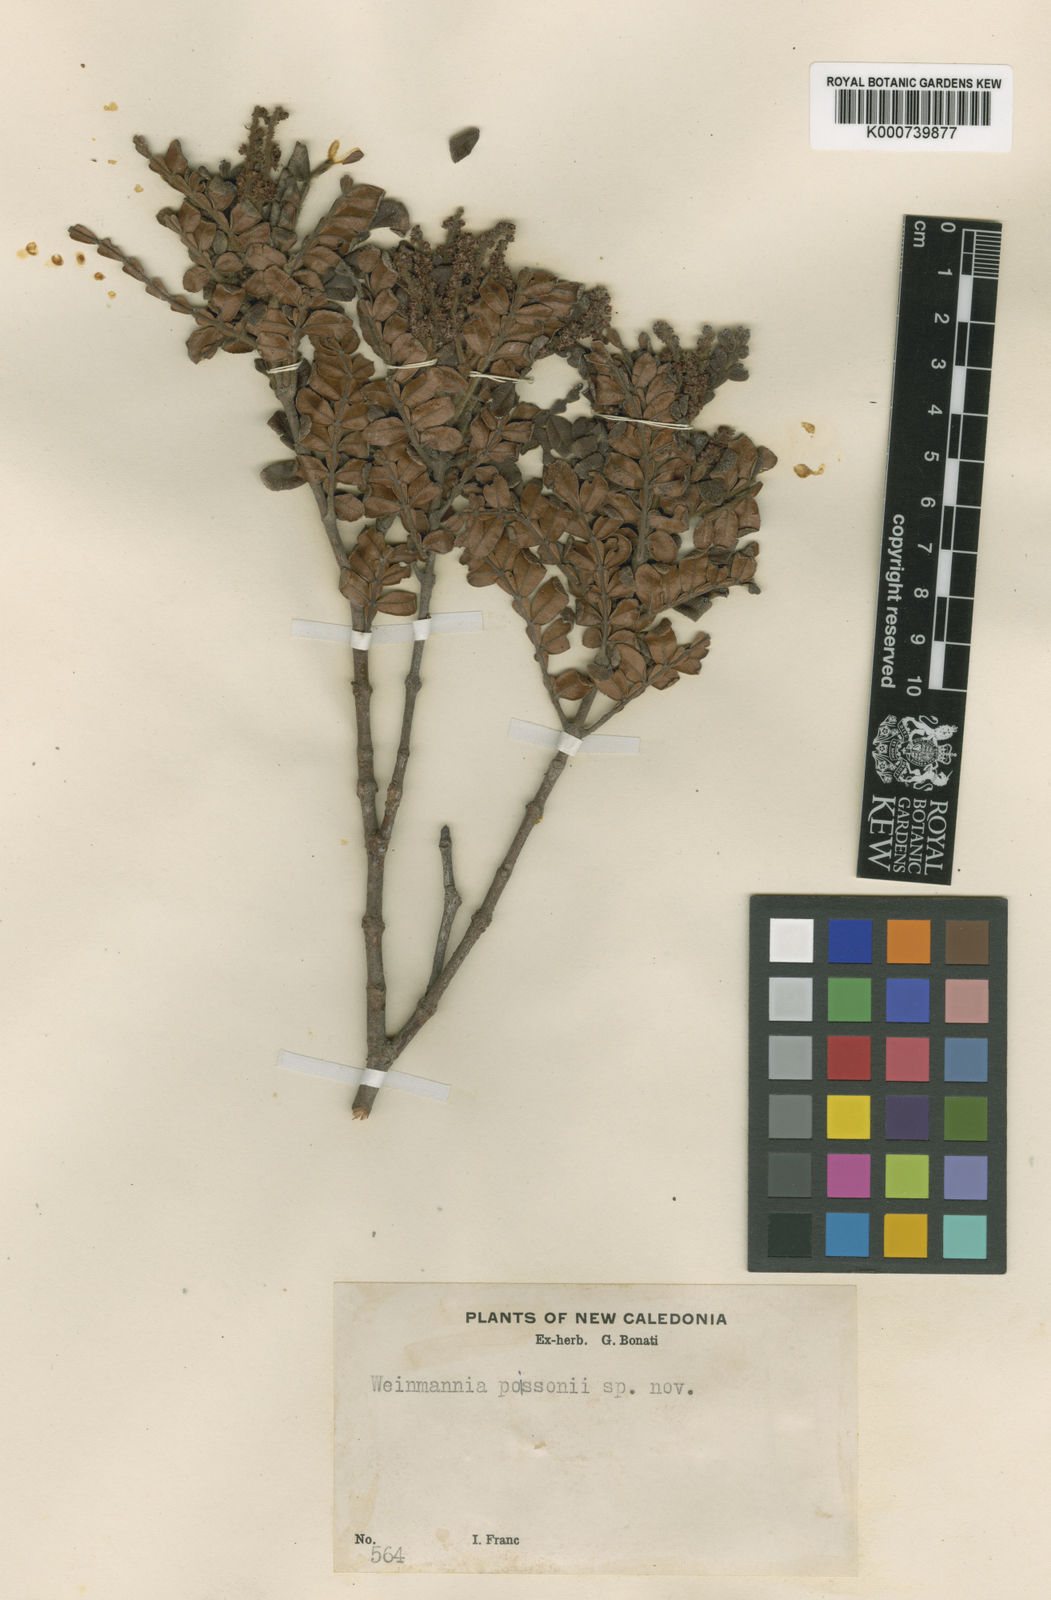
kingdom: Plantae
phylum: Tracheophyta
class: Magnoliopsida
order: Oxalidales
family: Cunoniaceae
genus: Cunonia
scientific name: Cunonia pterophylla
